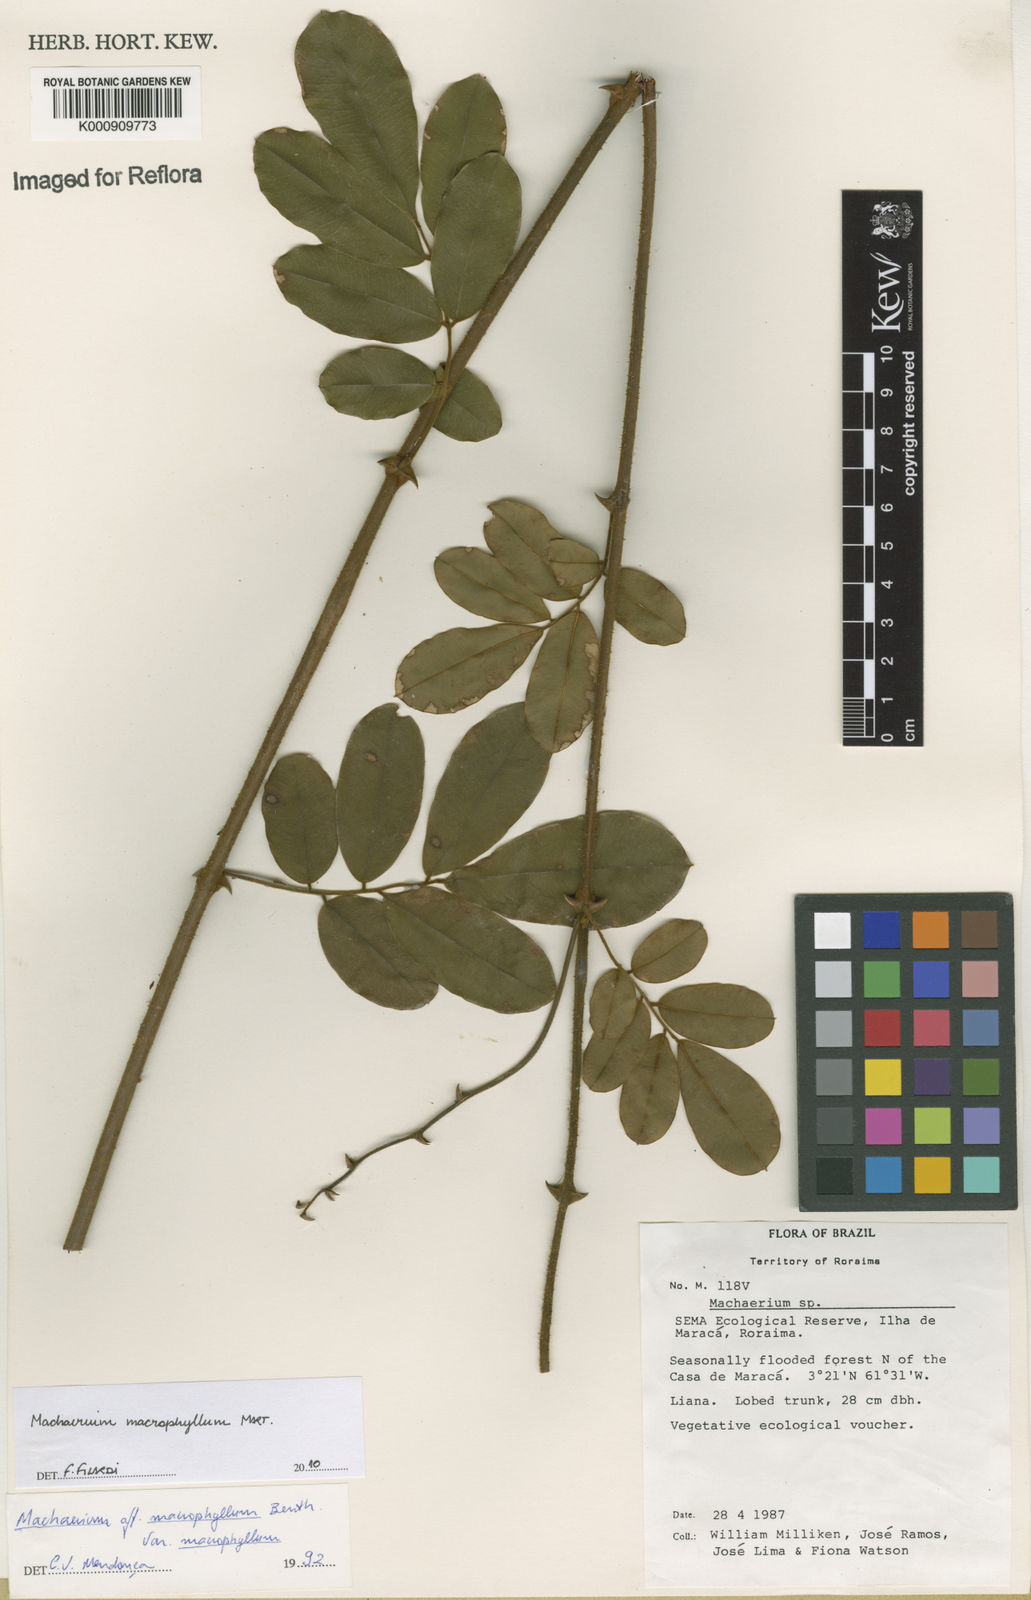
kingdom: Plantae
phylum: Tracheophyta
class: Magnoliopsida
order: Fabales
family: Fabaceae
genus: Machaerium
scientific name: Machaerium macrophyllum
